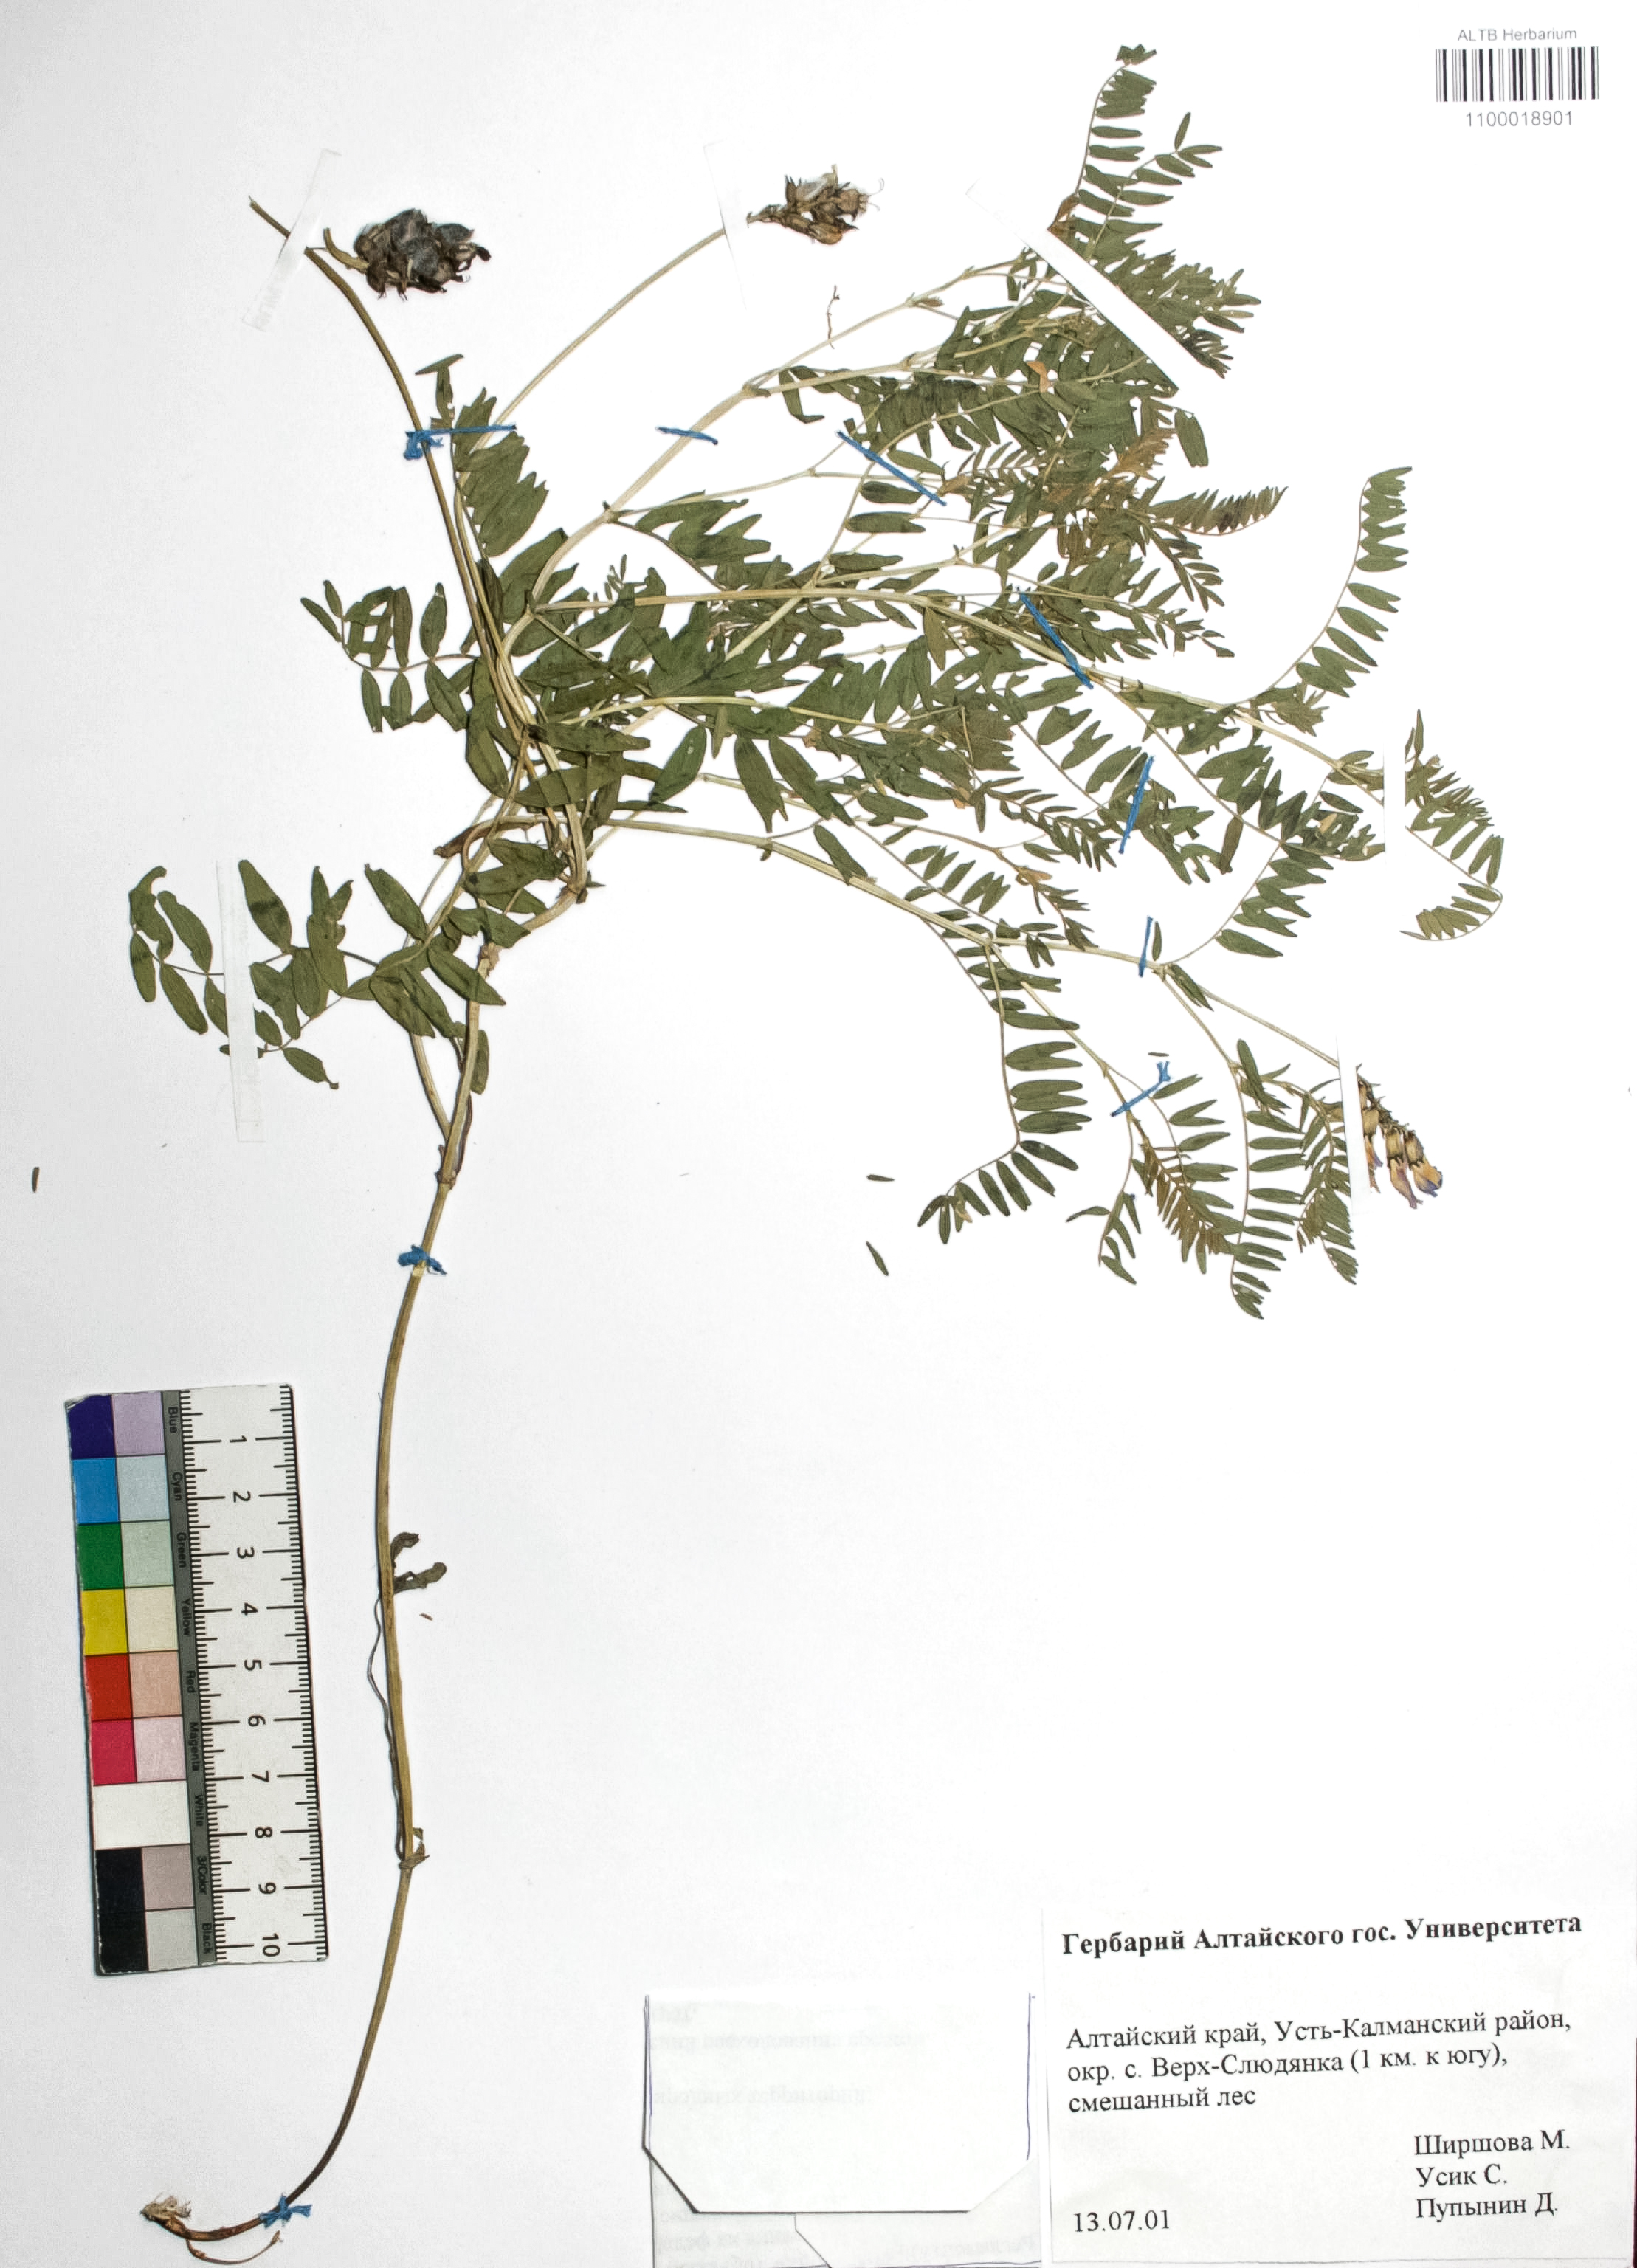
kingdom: Plantae
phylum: Tracheophyta
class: Magnoliopsida
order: Fabales
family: Fabaceae
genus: Astragalus
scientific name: Astragalus danicus
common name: Purple milk-vetch
